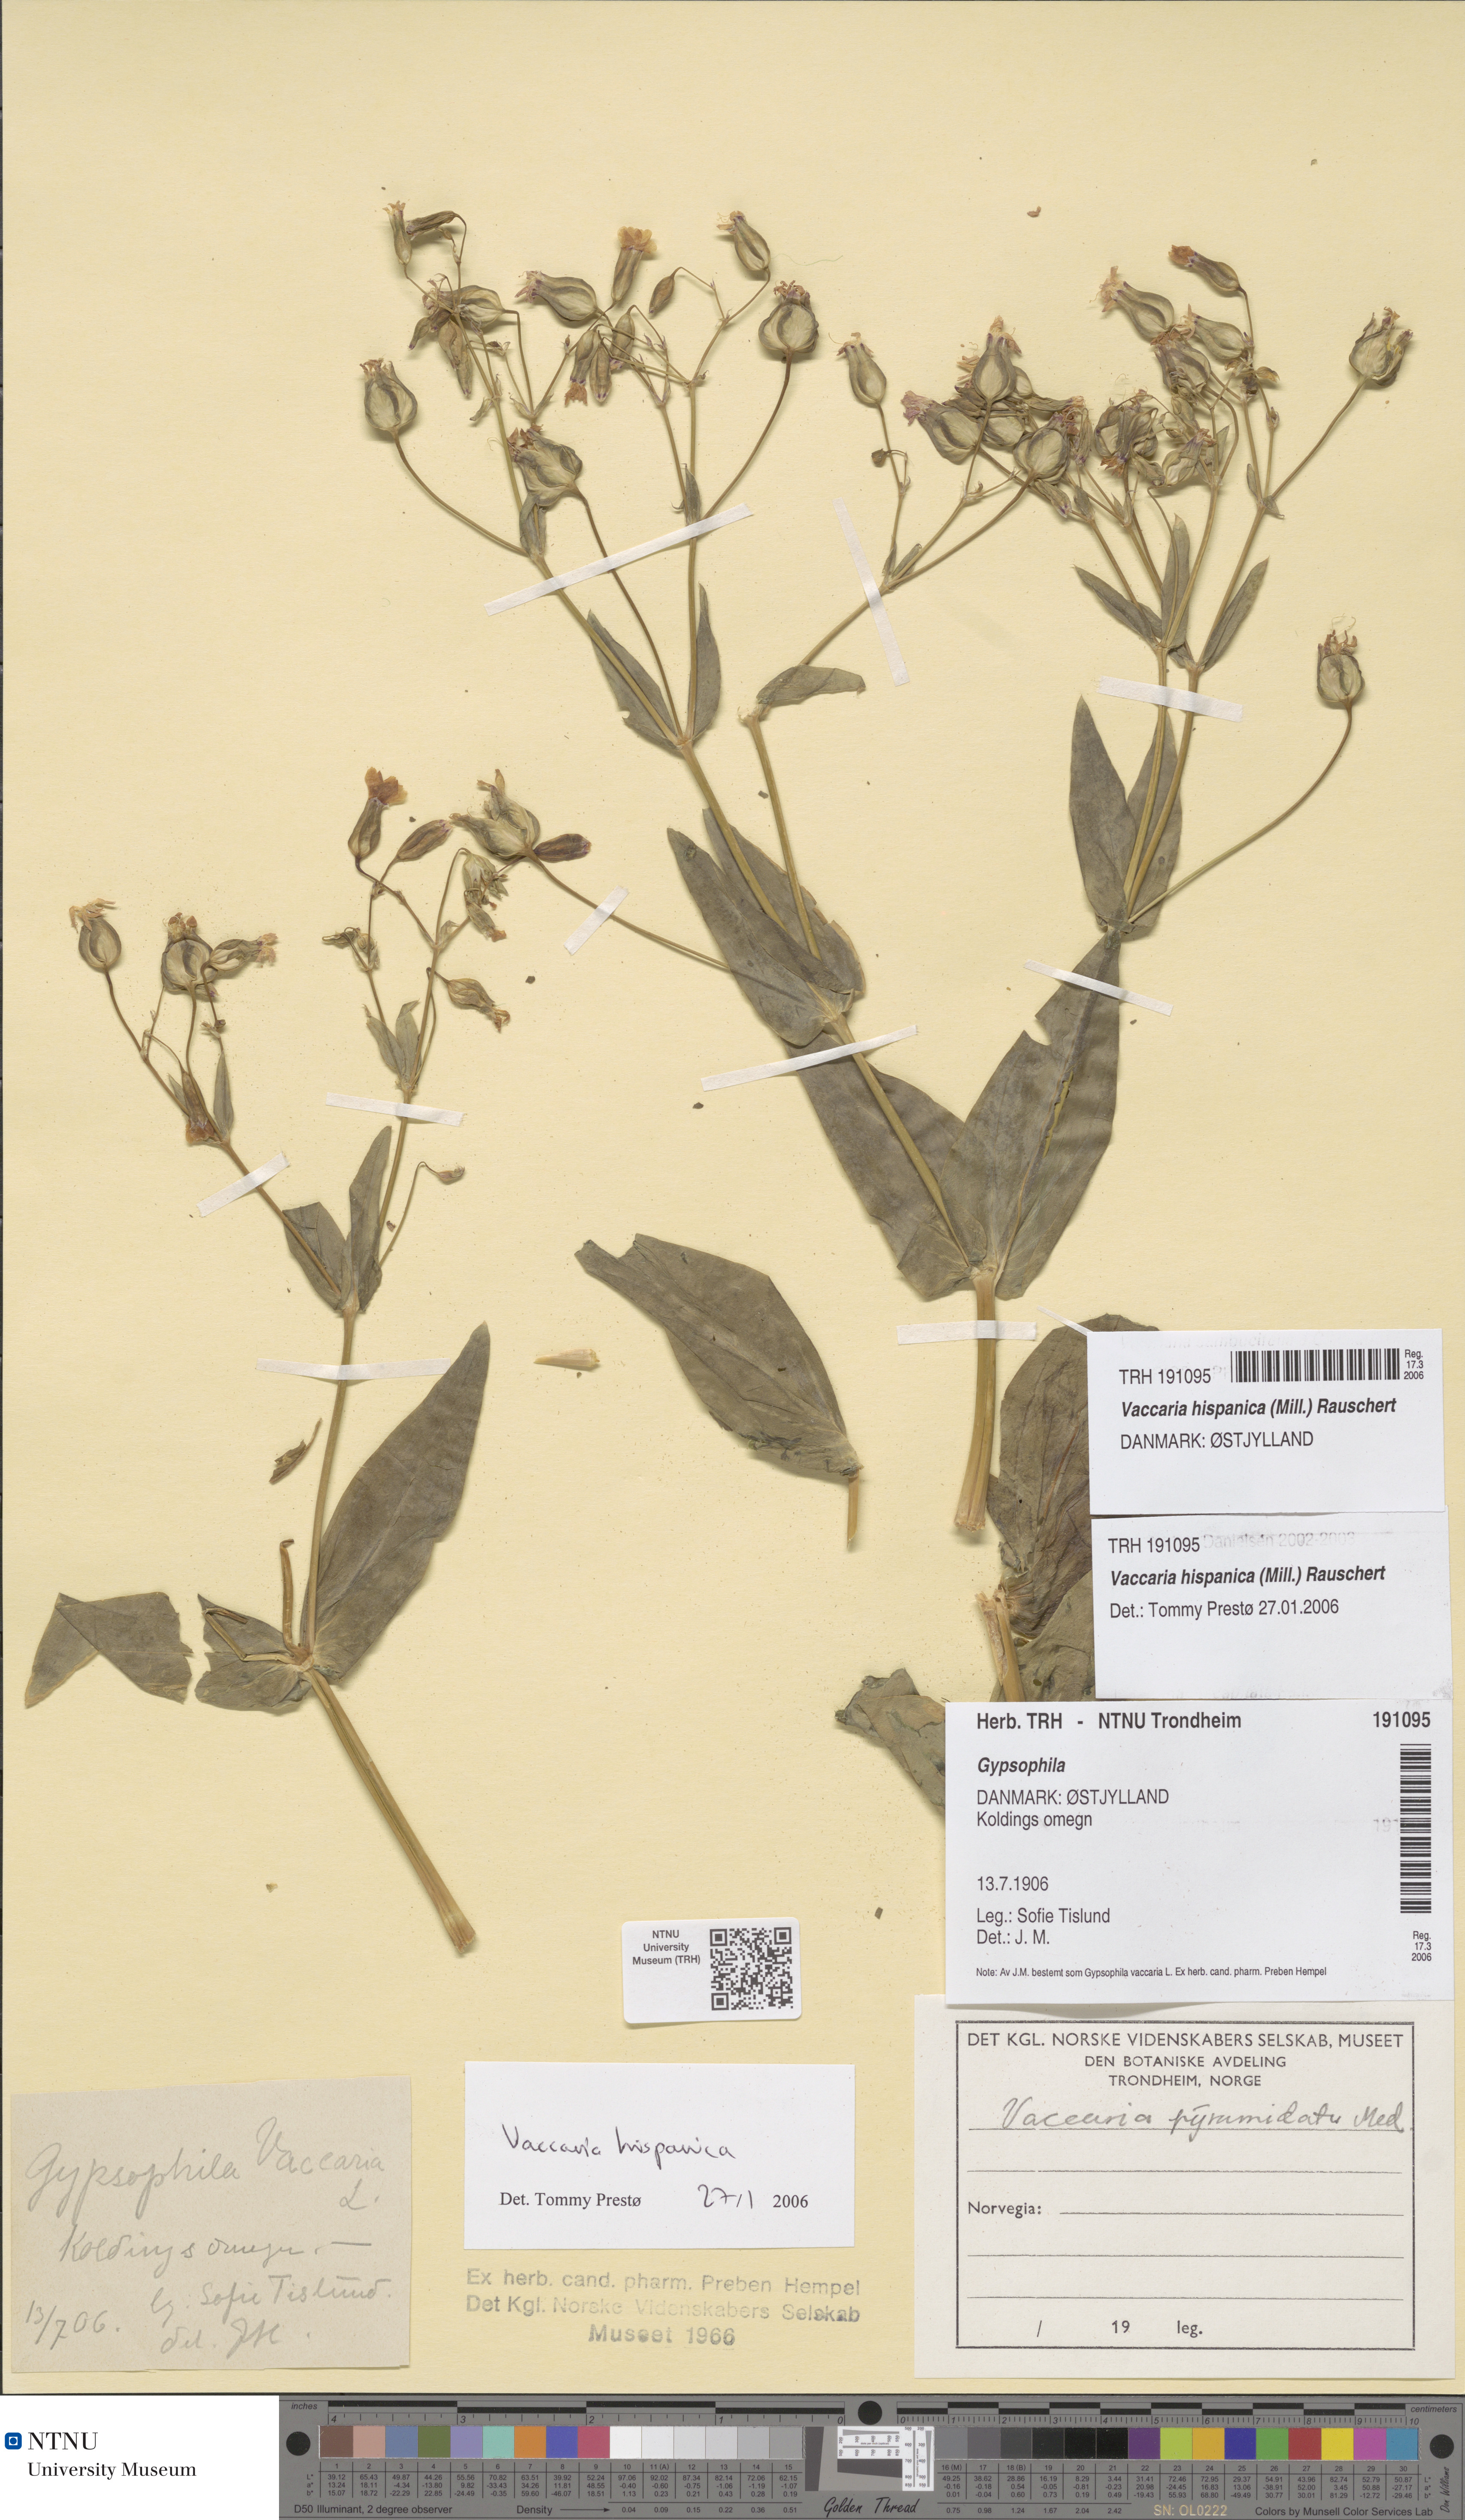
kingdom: Plantae
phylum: Tracheophyta
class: Magnoliopsida
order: Caryophyllales
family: Caryophyllaceae
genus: Gypsophila
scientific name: Gypsophila vaccaria
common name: Cow soapwort
